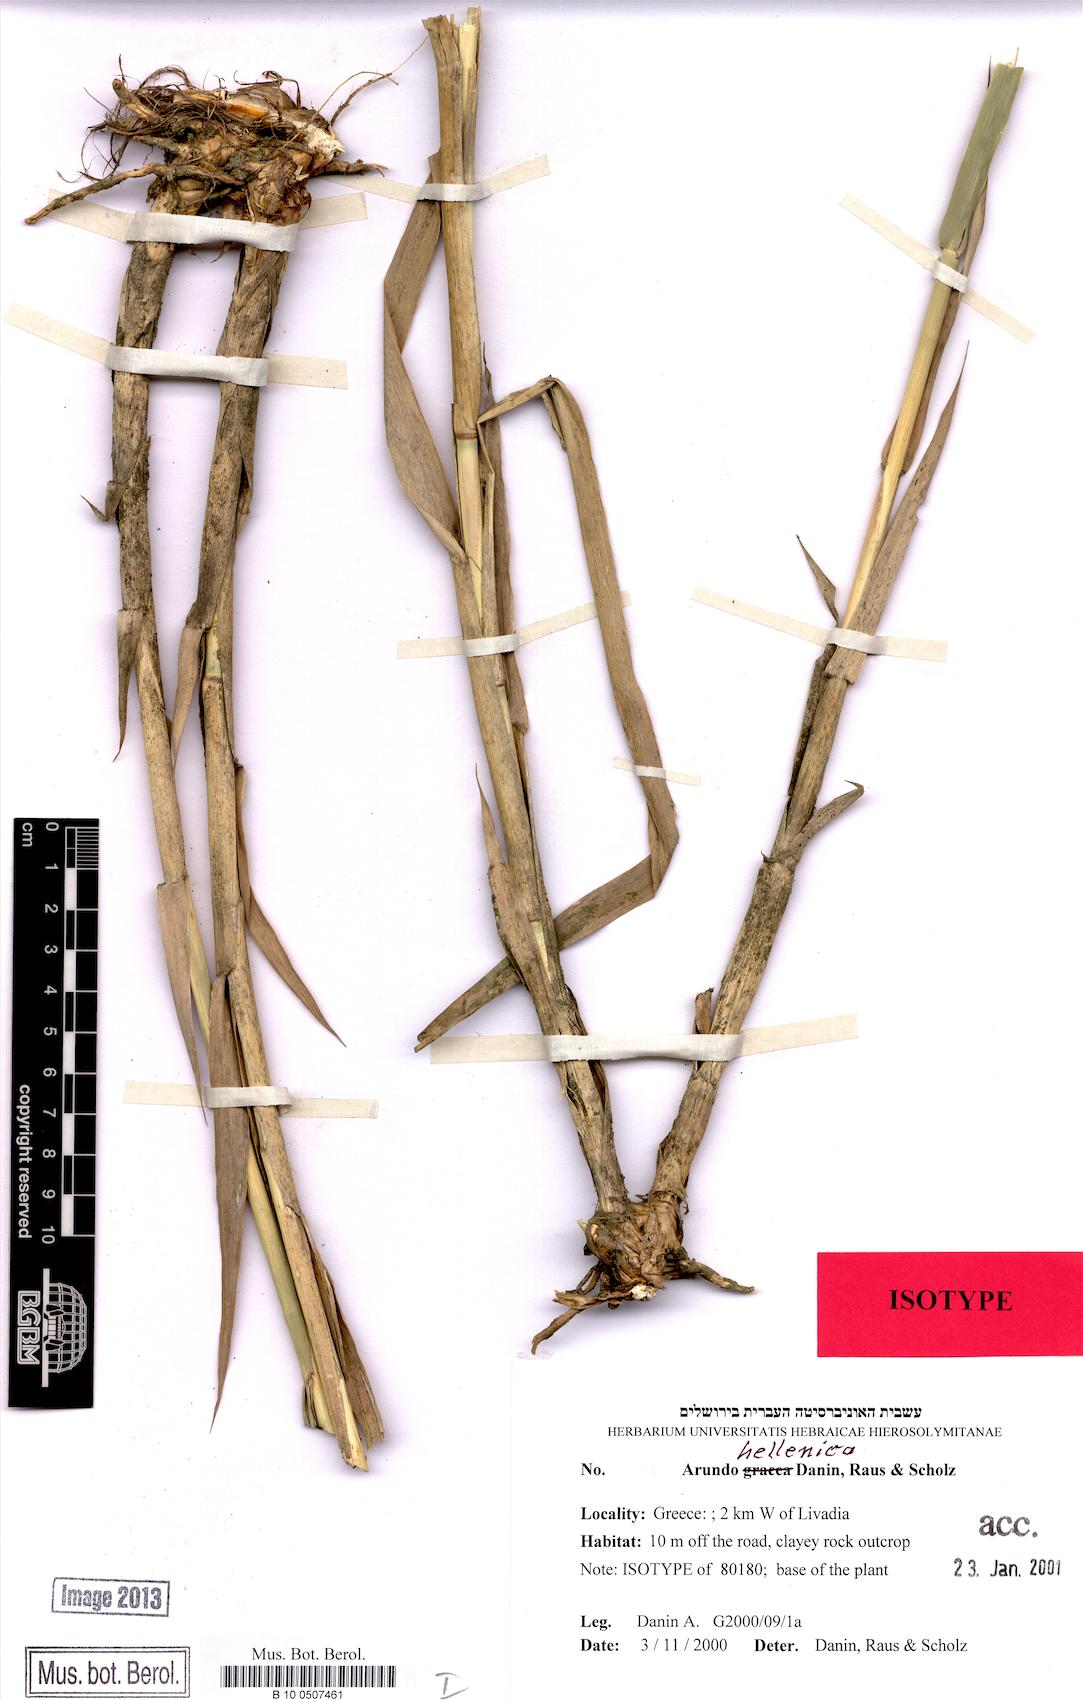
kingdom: Plantae
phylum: Tracheophyta
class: Liliopsida
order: Poales
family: Poaceae
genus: Arundo
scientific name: Arundo plinii
